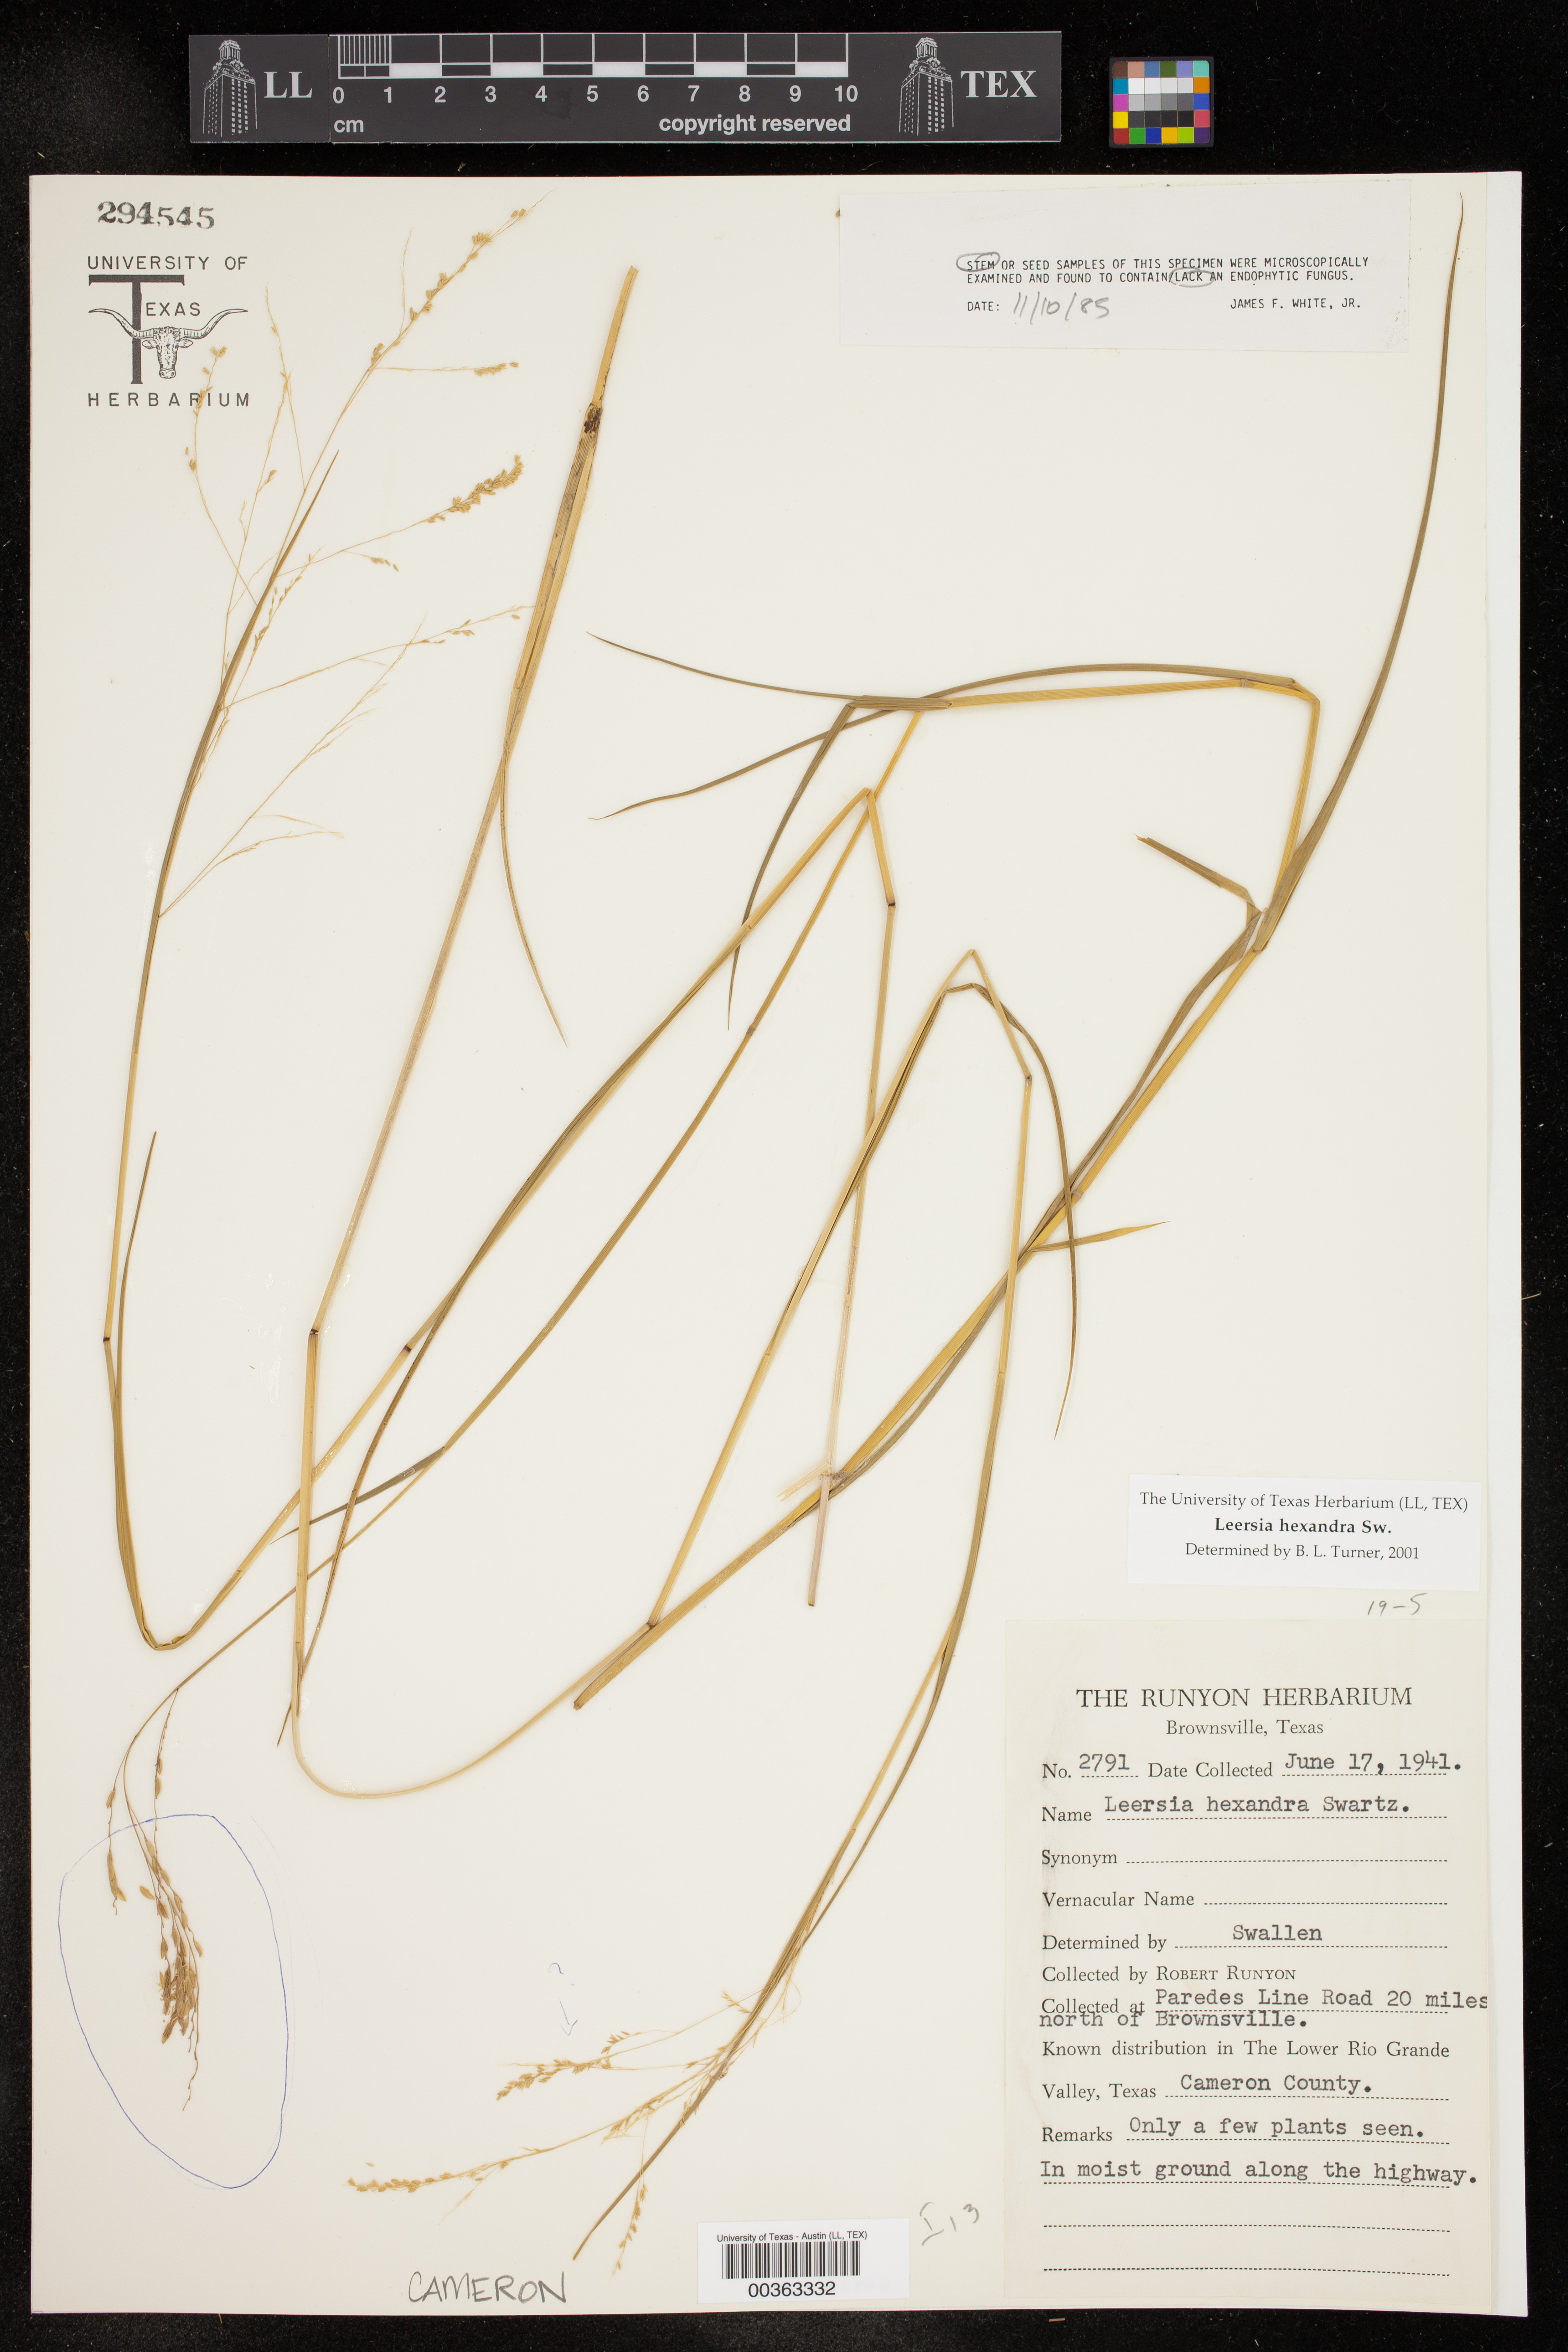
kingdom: Plantae
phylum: Tracheophyta
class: Liliopsida
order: Poales
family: Poaceae
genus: Leersia
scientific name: Leersia hexandra
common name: Southern cut grass
